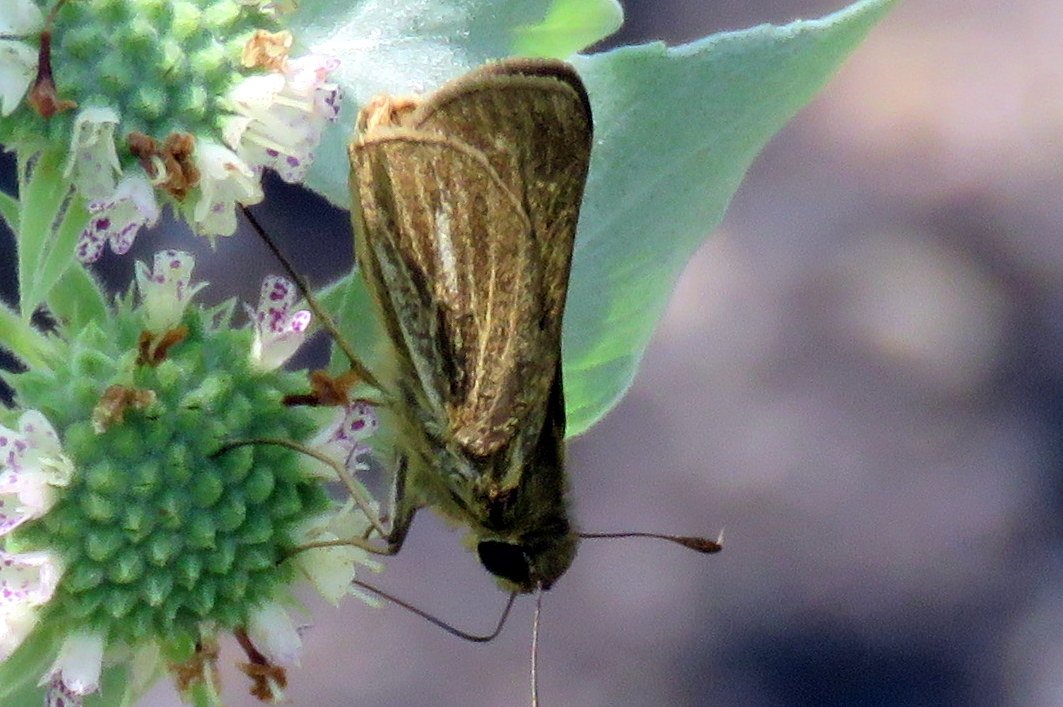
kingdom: Animalia
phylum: Arthropoda
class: Insecta
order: Lepidoptera
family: Hesperiidae
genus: Panoquina
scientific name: Panoquina panoquin
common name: Salt Marsh Skipper
